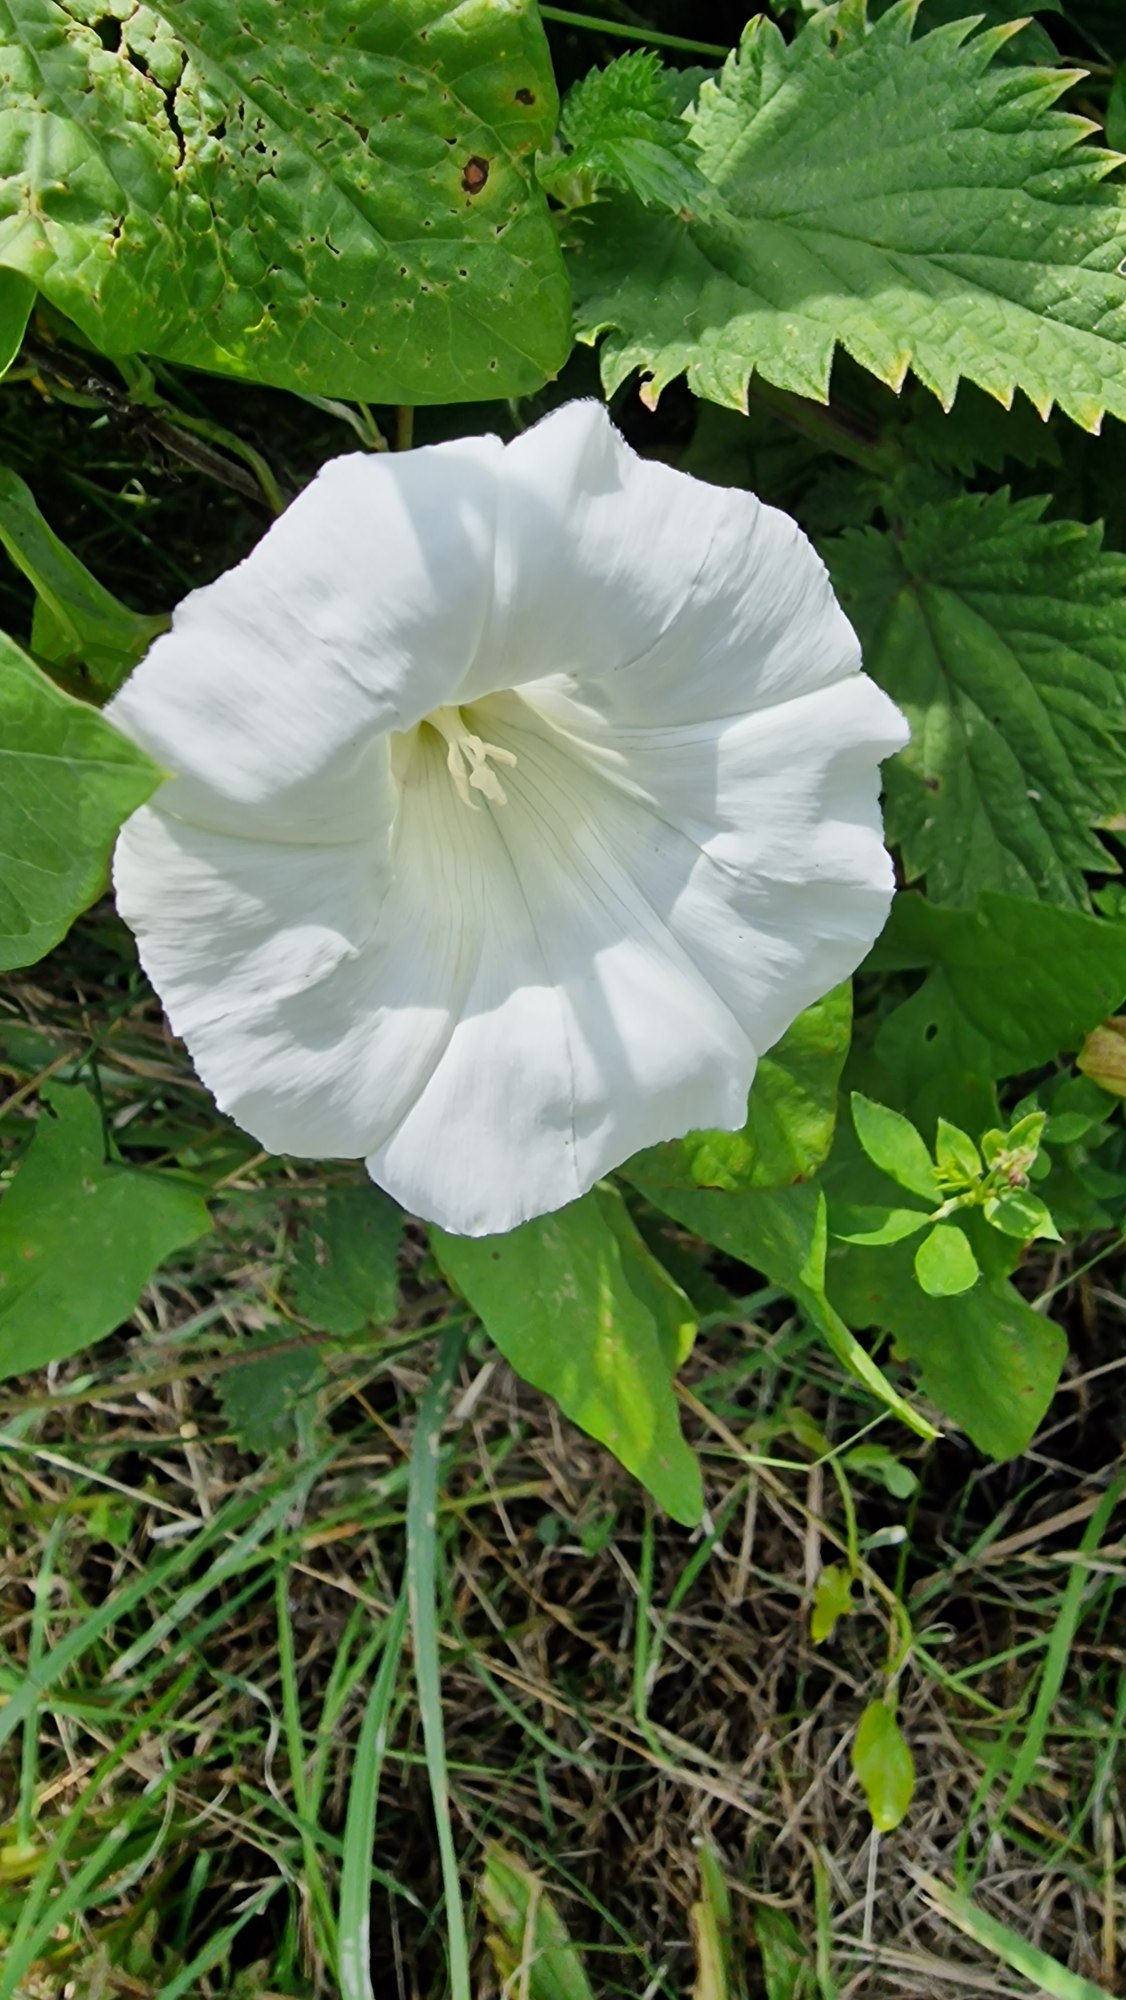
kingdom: Plantae
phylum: Tracheophyta
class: Magnoliopsida
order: Solanales
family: Convolvulaceae
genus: Calystegia
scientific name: Calystegia sepium
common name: Gærde-snerle
